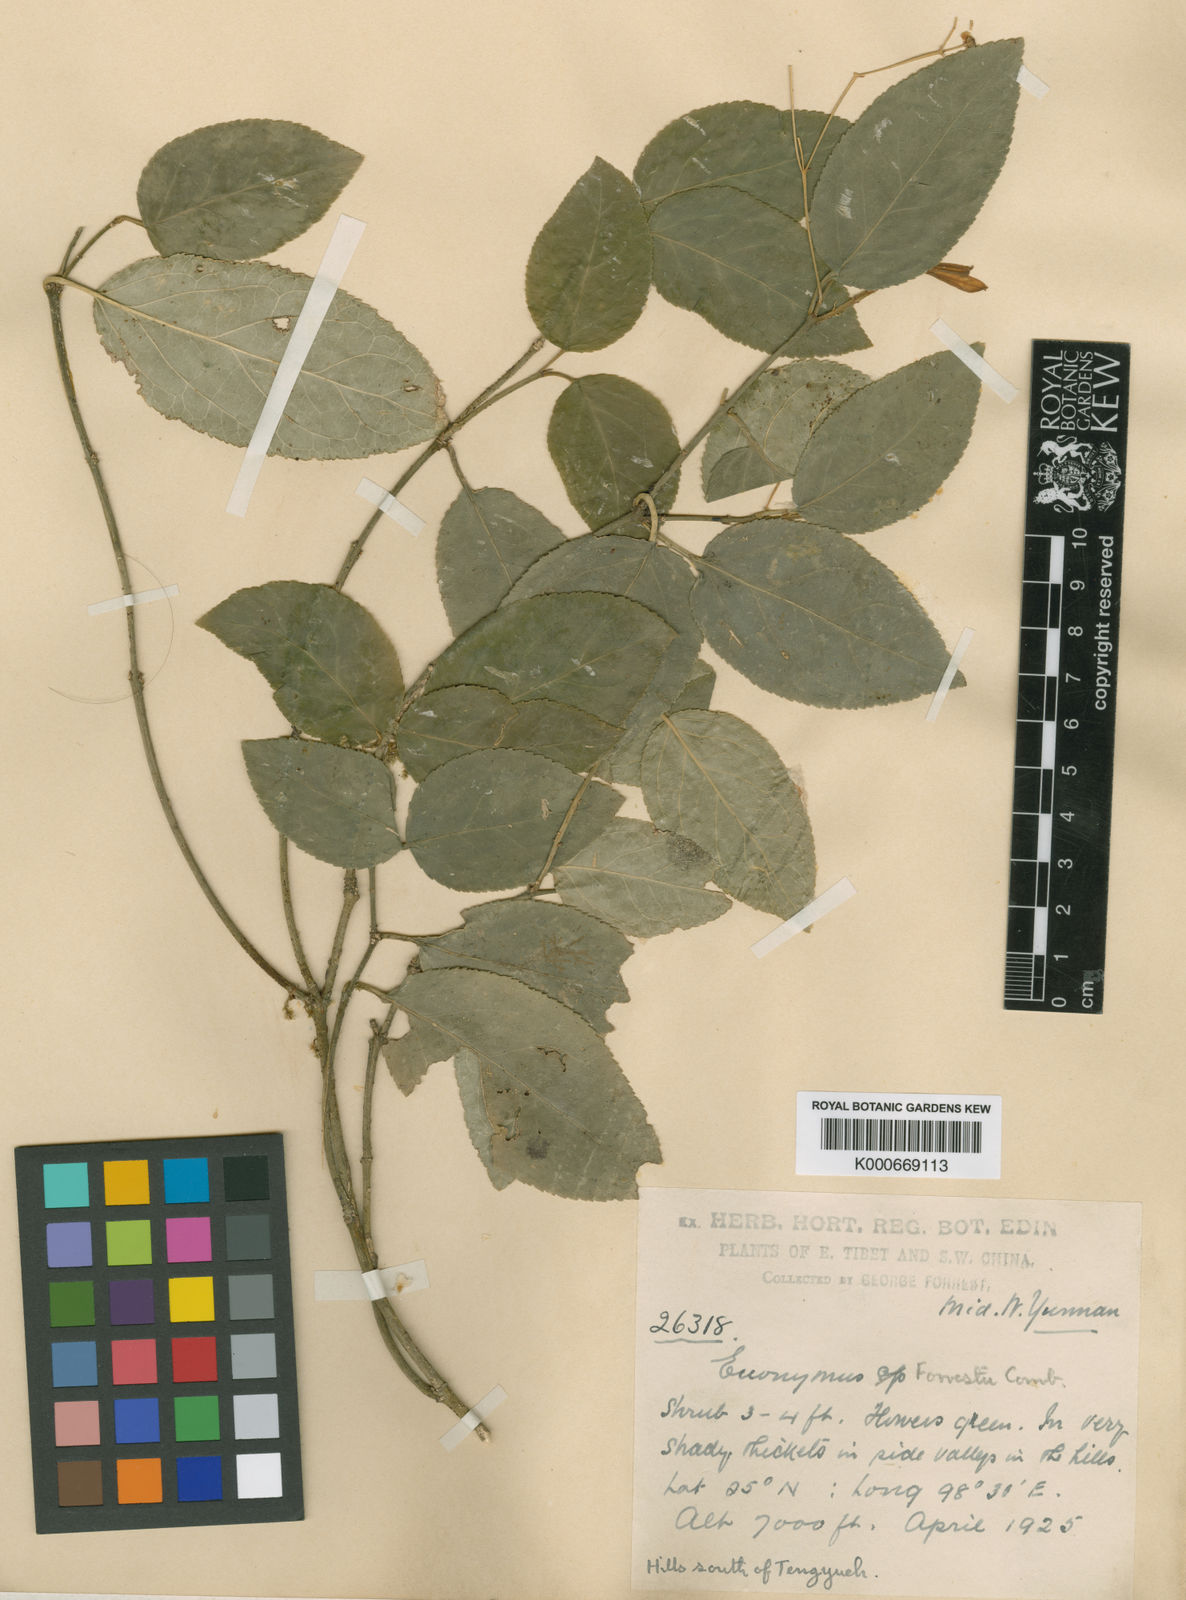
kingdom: Plantae
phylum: Tracheophyta
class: Magnoliopsida
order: Celastrales
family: Celastraceae
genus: Elaeodendron
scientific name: Elaeodendron viburnifolium
